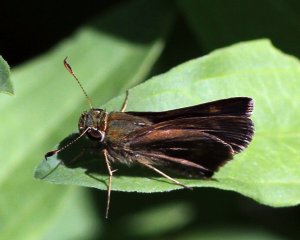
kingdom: Animalia
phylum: Arthropoda
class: Insecta
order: Lepidoptera
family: Hesperiidae
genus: Euphyes
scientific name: Euphyes vestris
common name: Dun Skipper
